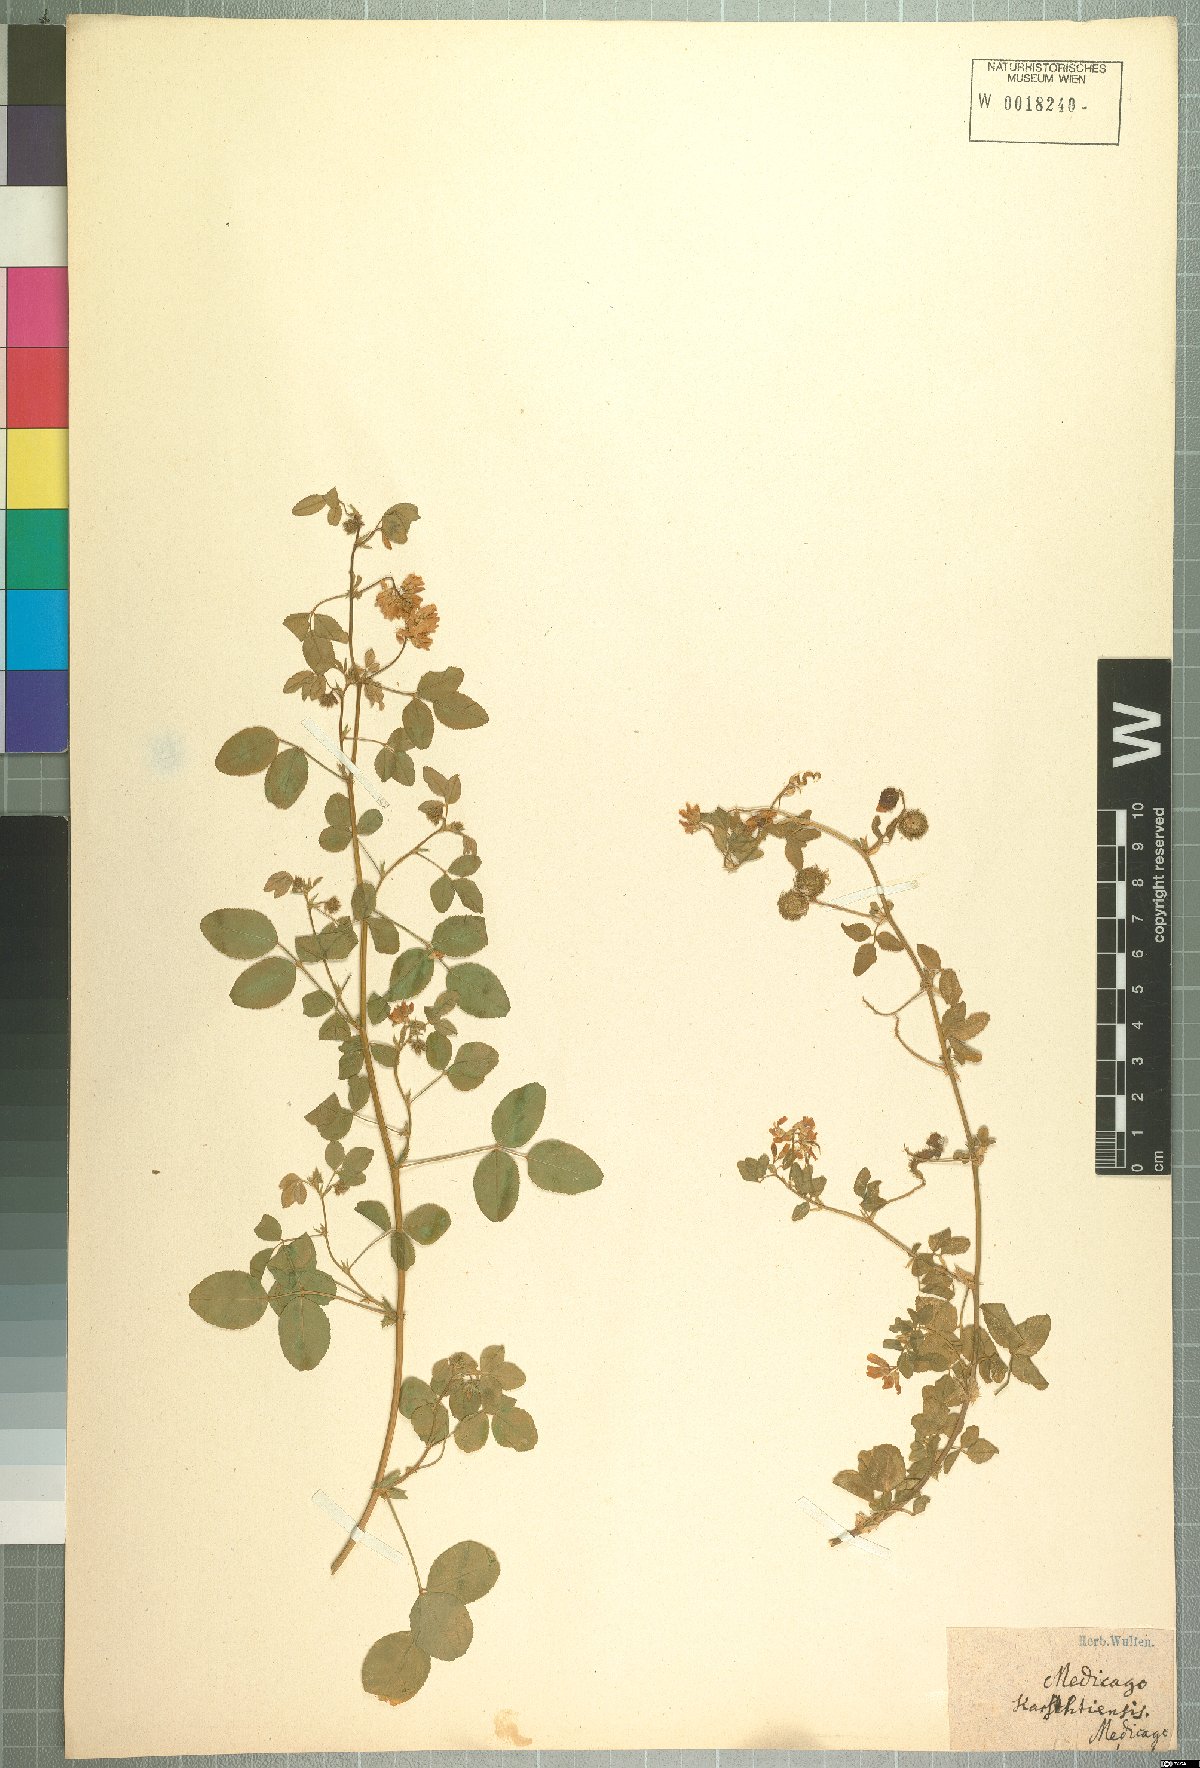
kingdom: Plantae
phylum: Tracheophyta
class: Magnoliopsida
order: Fabales
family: Fabaceae
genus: Medicago
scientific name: Medicago carstiensis
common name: Creeping-rooted medic
